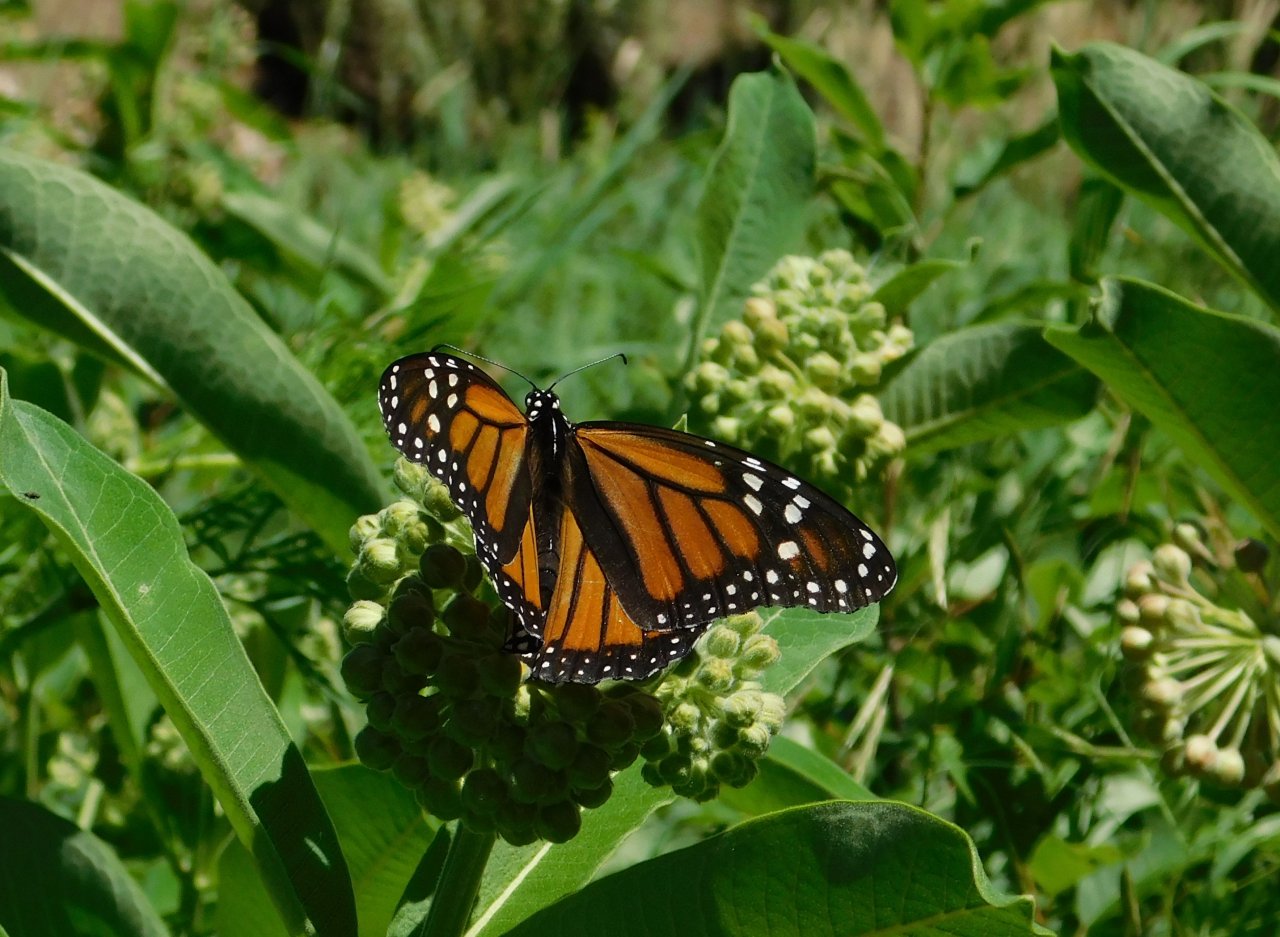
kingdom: Animalia
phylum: Arthropoda
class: Insecta
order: Lepidoptera
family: Nymphalidae
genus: Danaus
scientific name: Danaus plexippus
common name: Monarch
